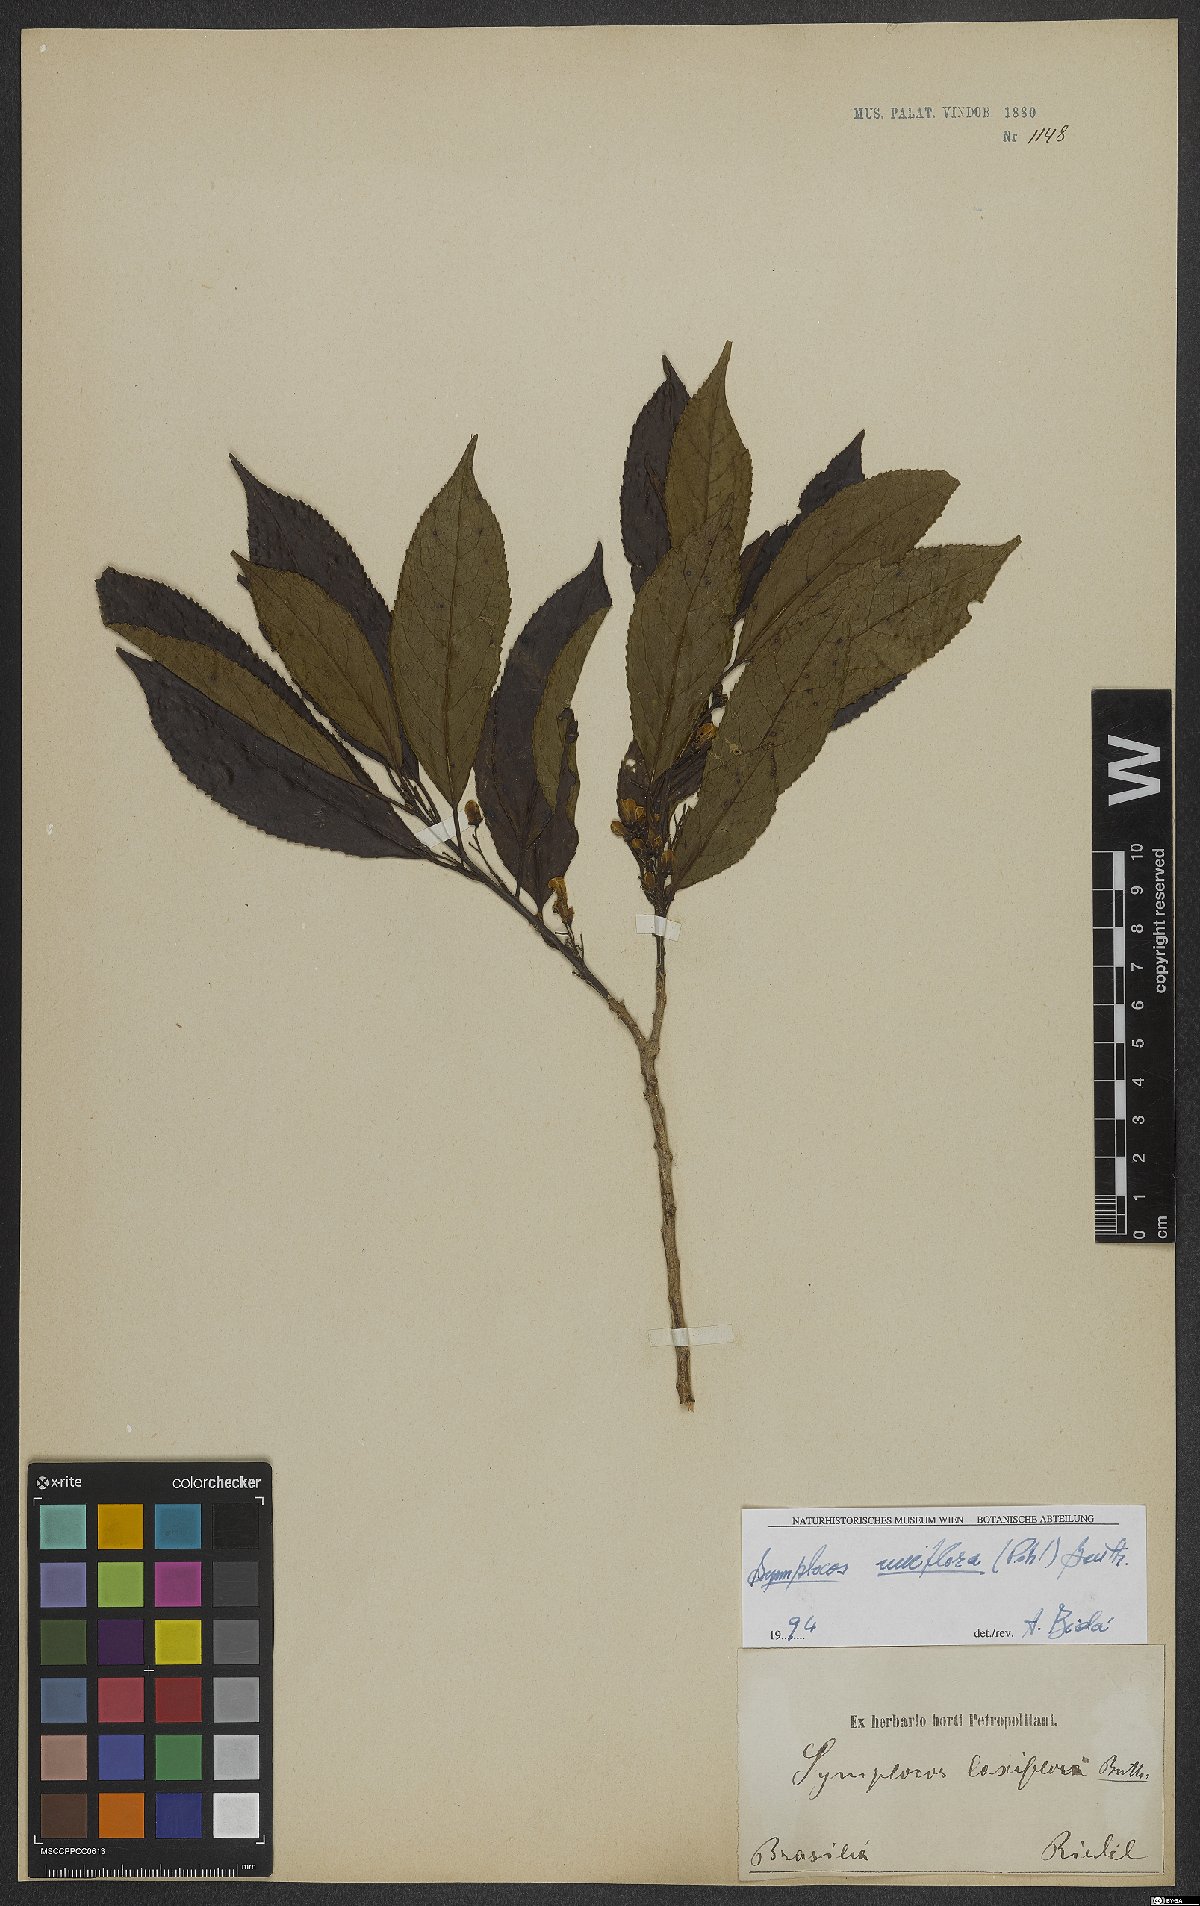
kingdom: Plantae
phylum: Tracheophyta
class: Magnoliopsida
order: Ericales
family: Symplocaceae
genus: Symplocos
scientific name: Symplocos uniflora
